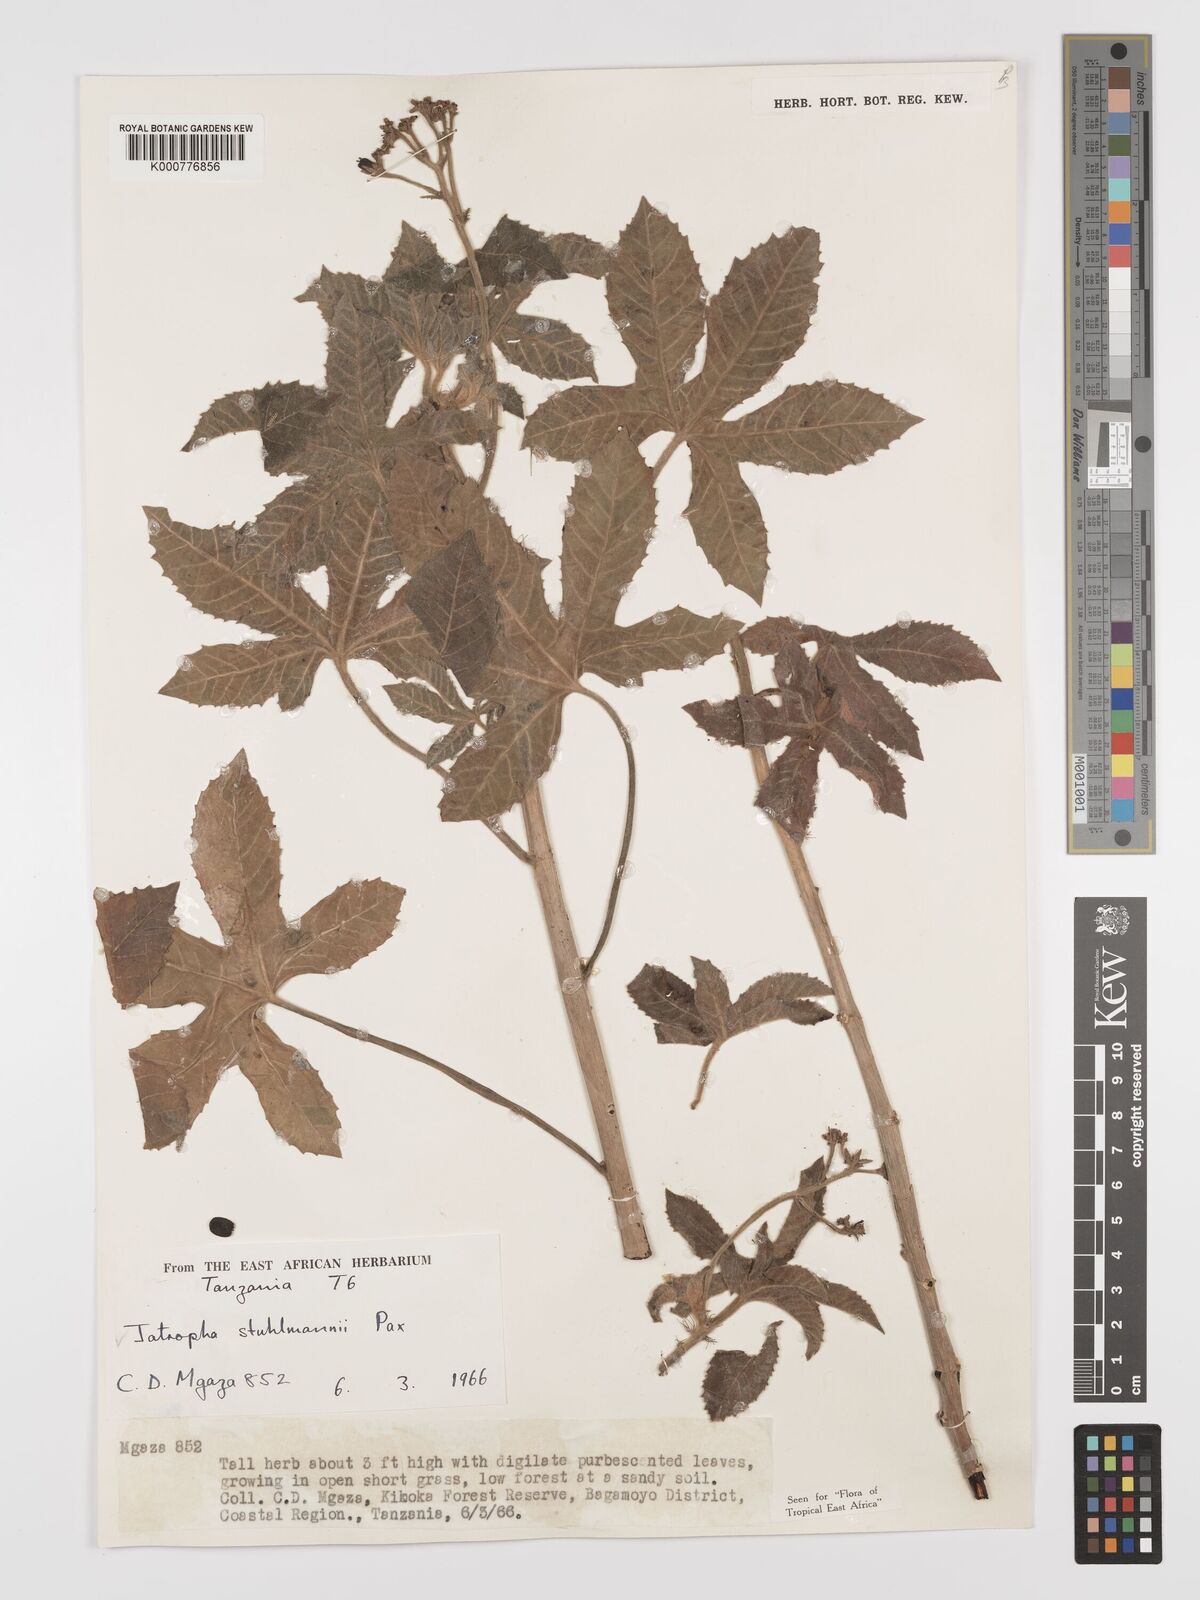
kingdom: Plantae
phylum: Tracheophyta
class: Magnoliopsida
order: Malpighiales
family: Euphorbiaceae
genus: Jatropha
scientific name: Jatropha stuhlmannii
